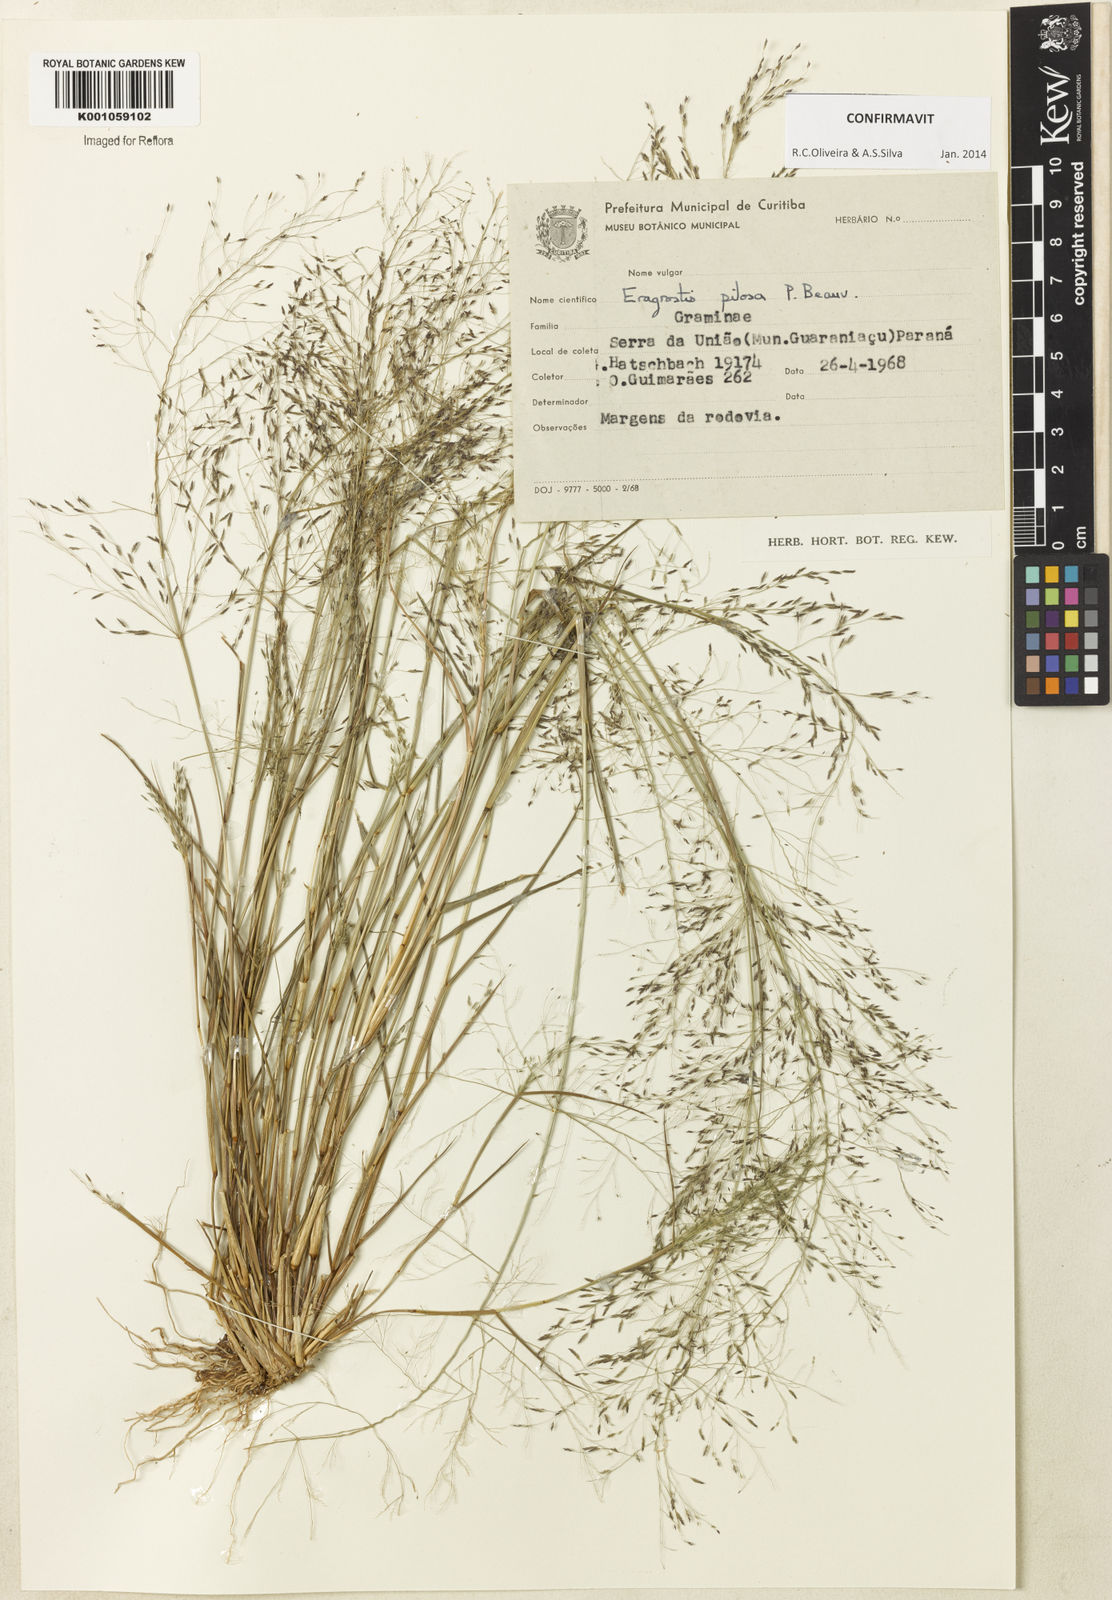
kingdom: Plantae
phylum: Tracheophyta
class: Liliopsida
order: Poales
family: Poaceae
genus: Eragrostis
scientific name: Eragrostis pilosa
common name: Indian lovegrass
